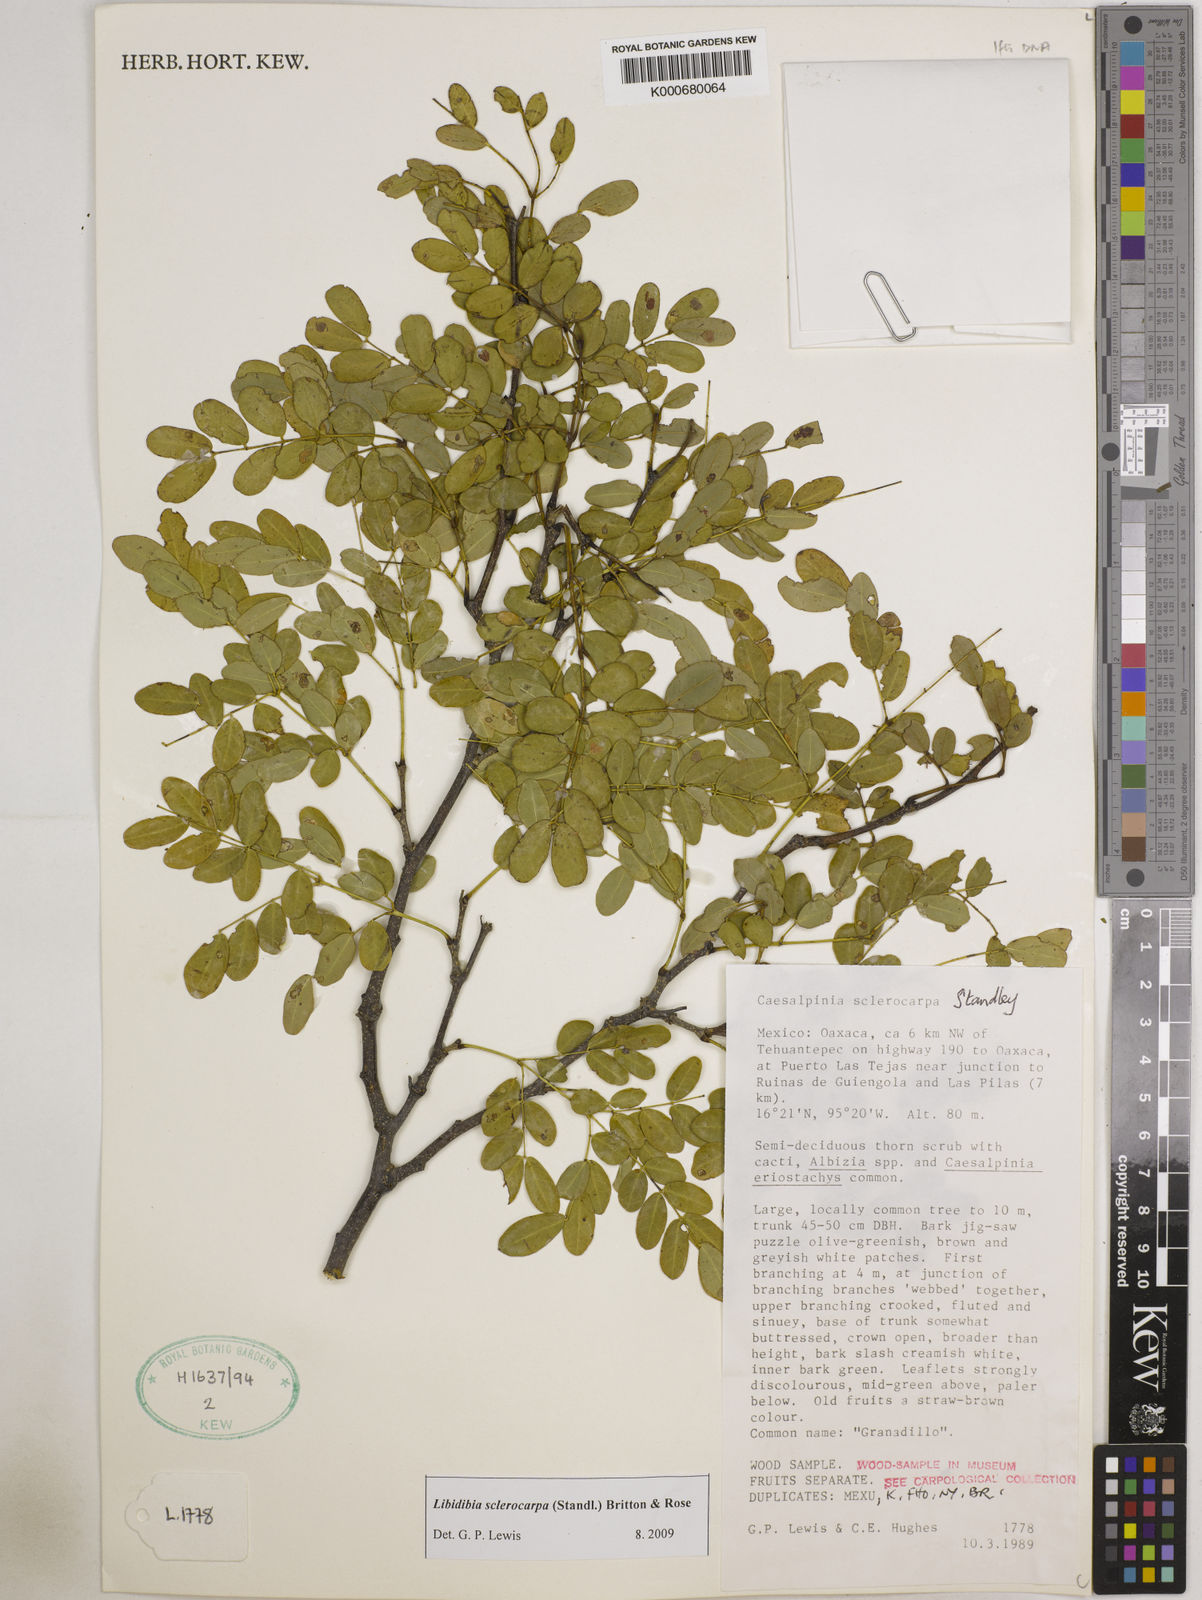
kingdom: Plantae
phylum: Tracheophyta
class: Magnoliopsida
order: Fabales
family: Fabaceae
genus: Libidibia
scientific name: Libidibia sclerocarpa
